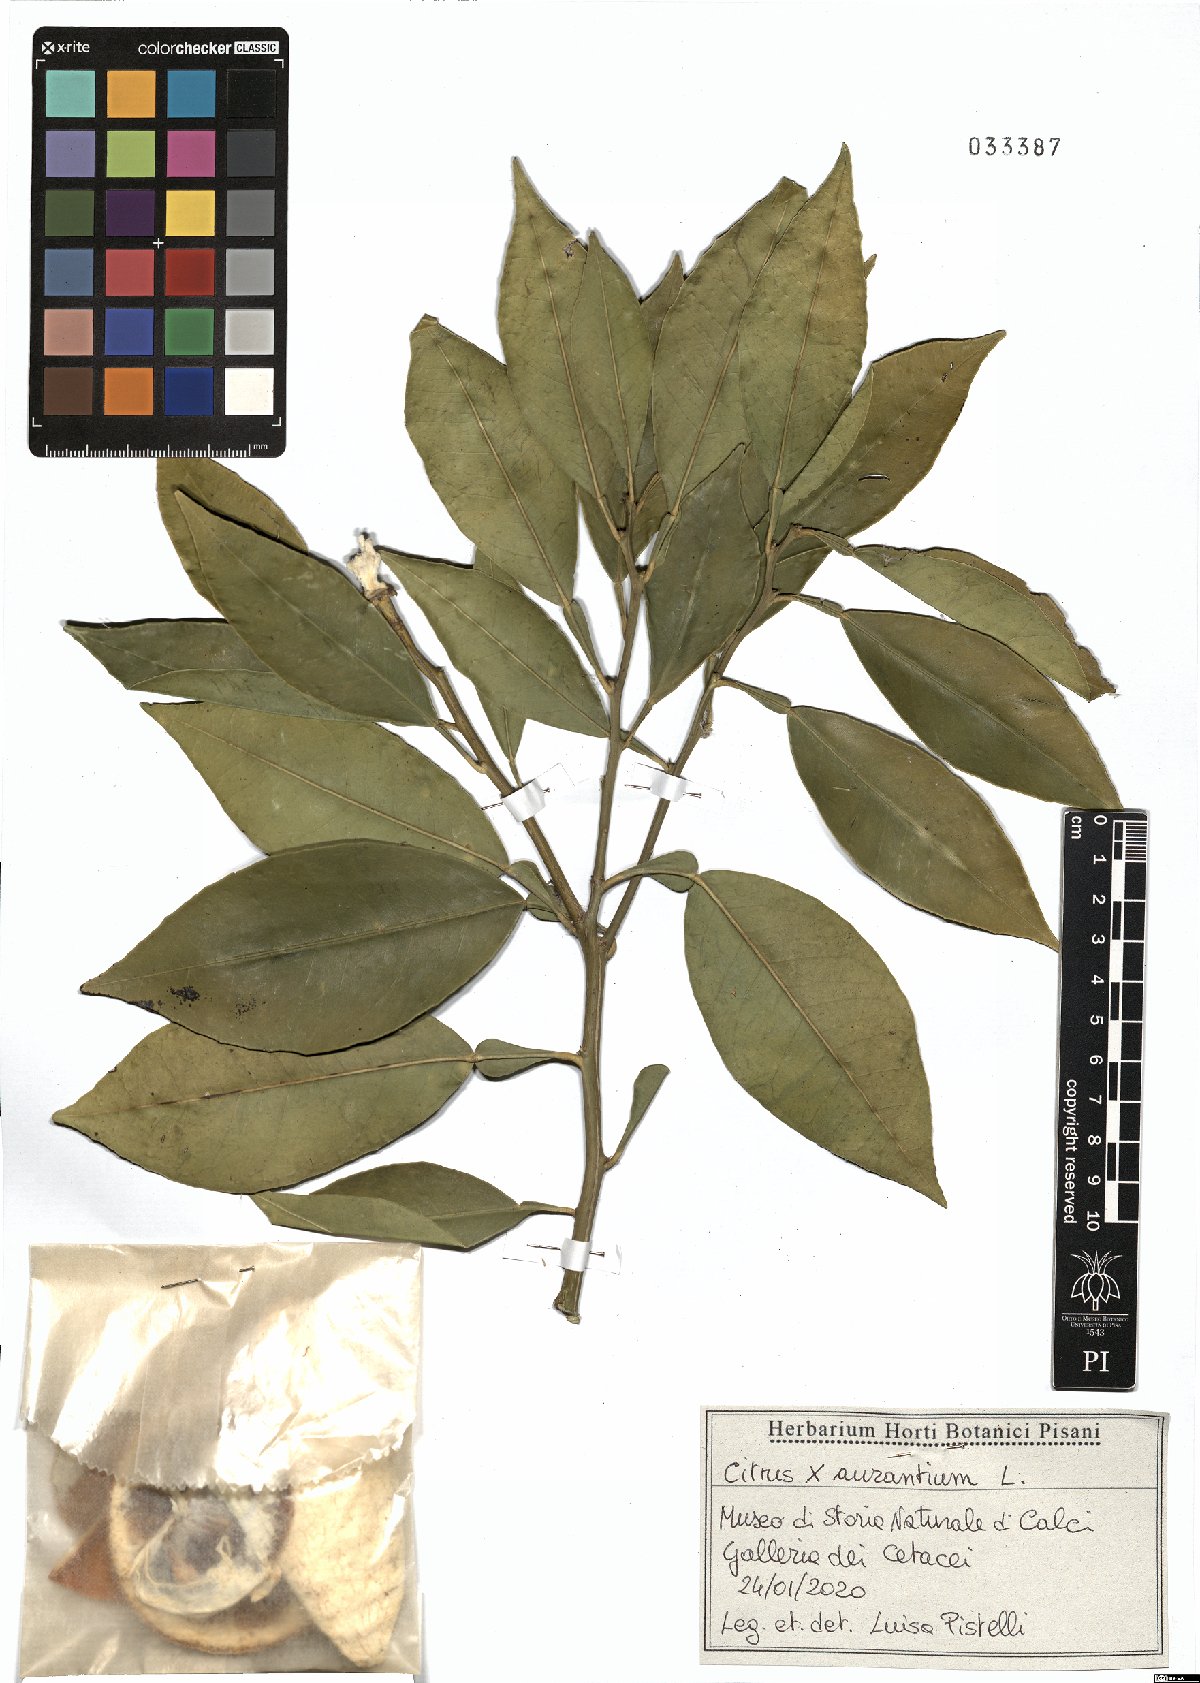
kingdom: Plantae
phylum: Tracheophyta
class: Magnoliopsida
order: Sapindales
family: Rutaceae
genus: Citrus
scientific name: Citrus aurantium
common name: Sour orange
